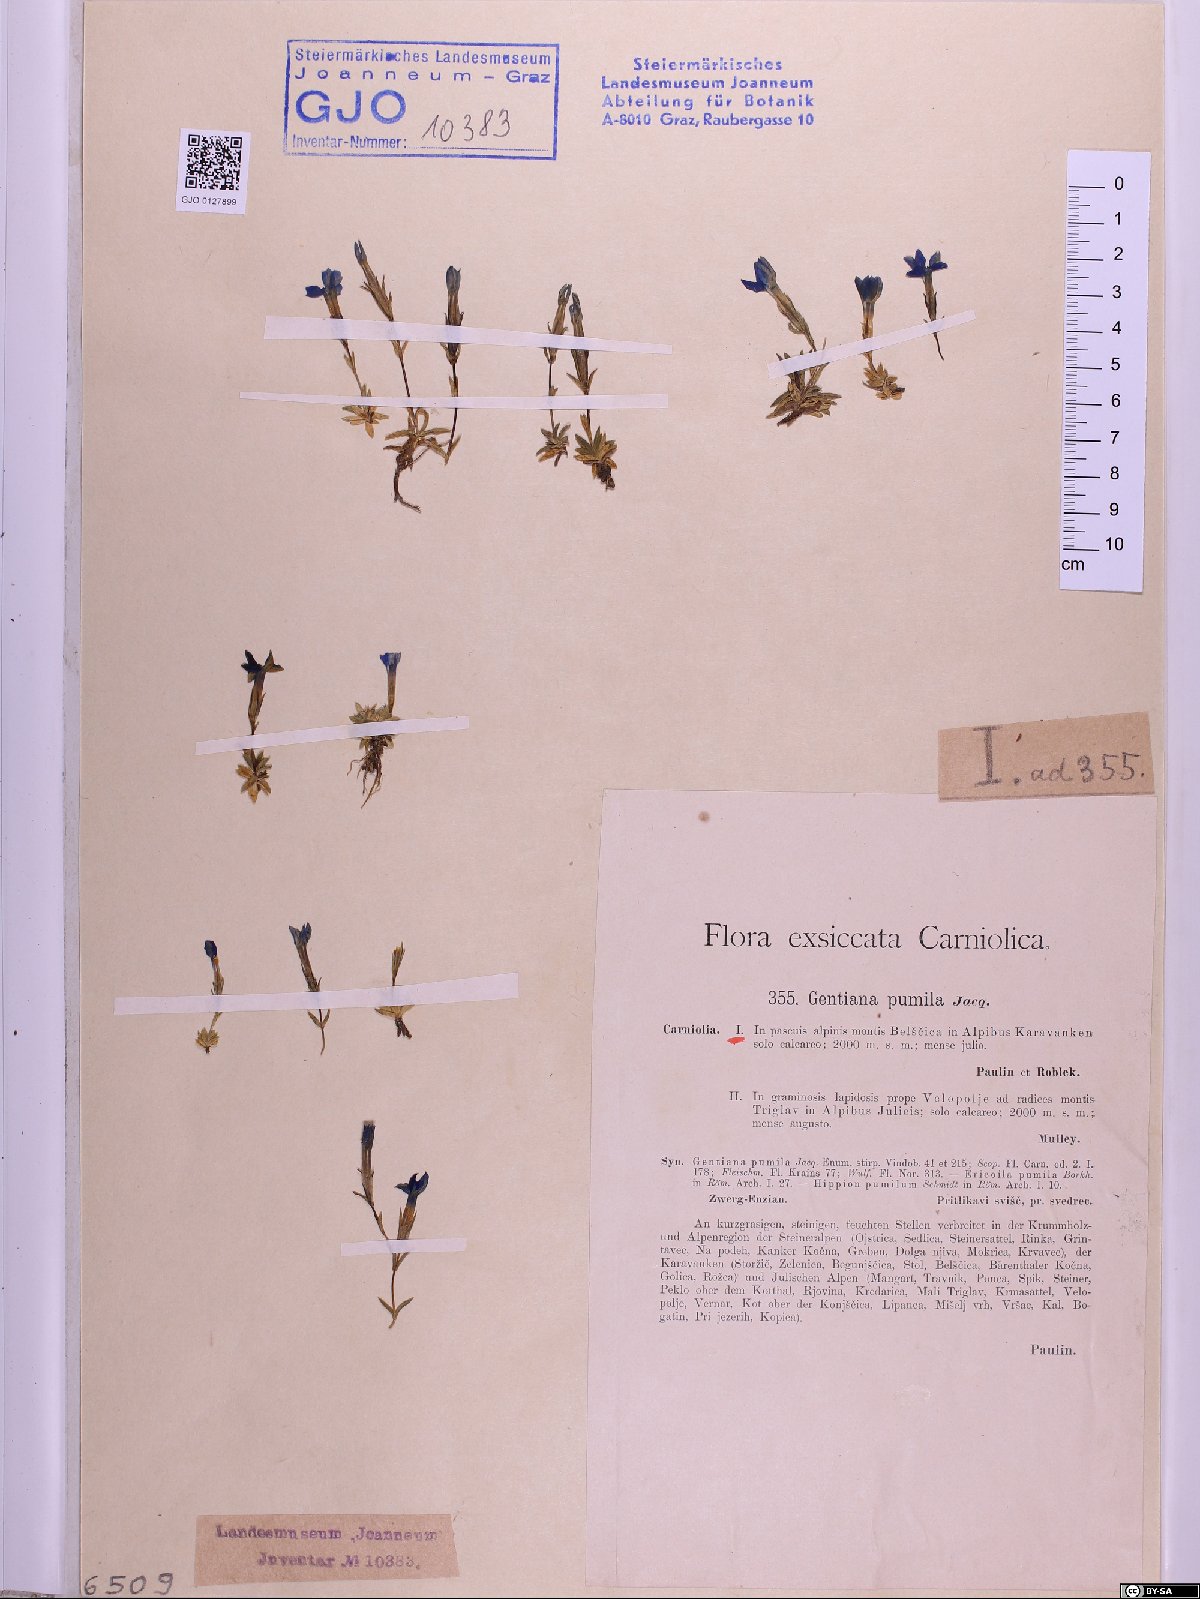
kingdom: Plantae
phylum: Tracheophyta
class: Magnoliopsida
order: Gentianales
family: Gentianaceae
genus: Gentiana
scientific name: Gentiana pumila
